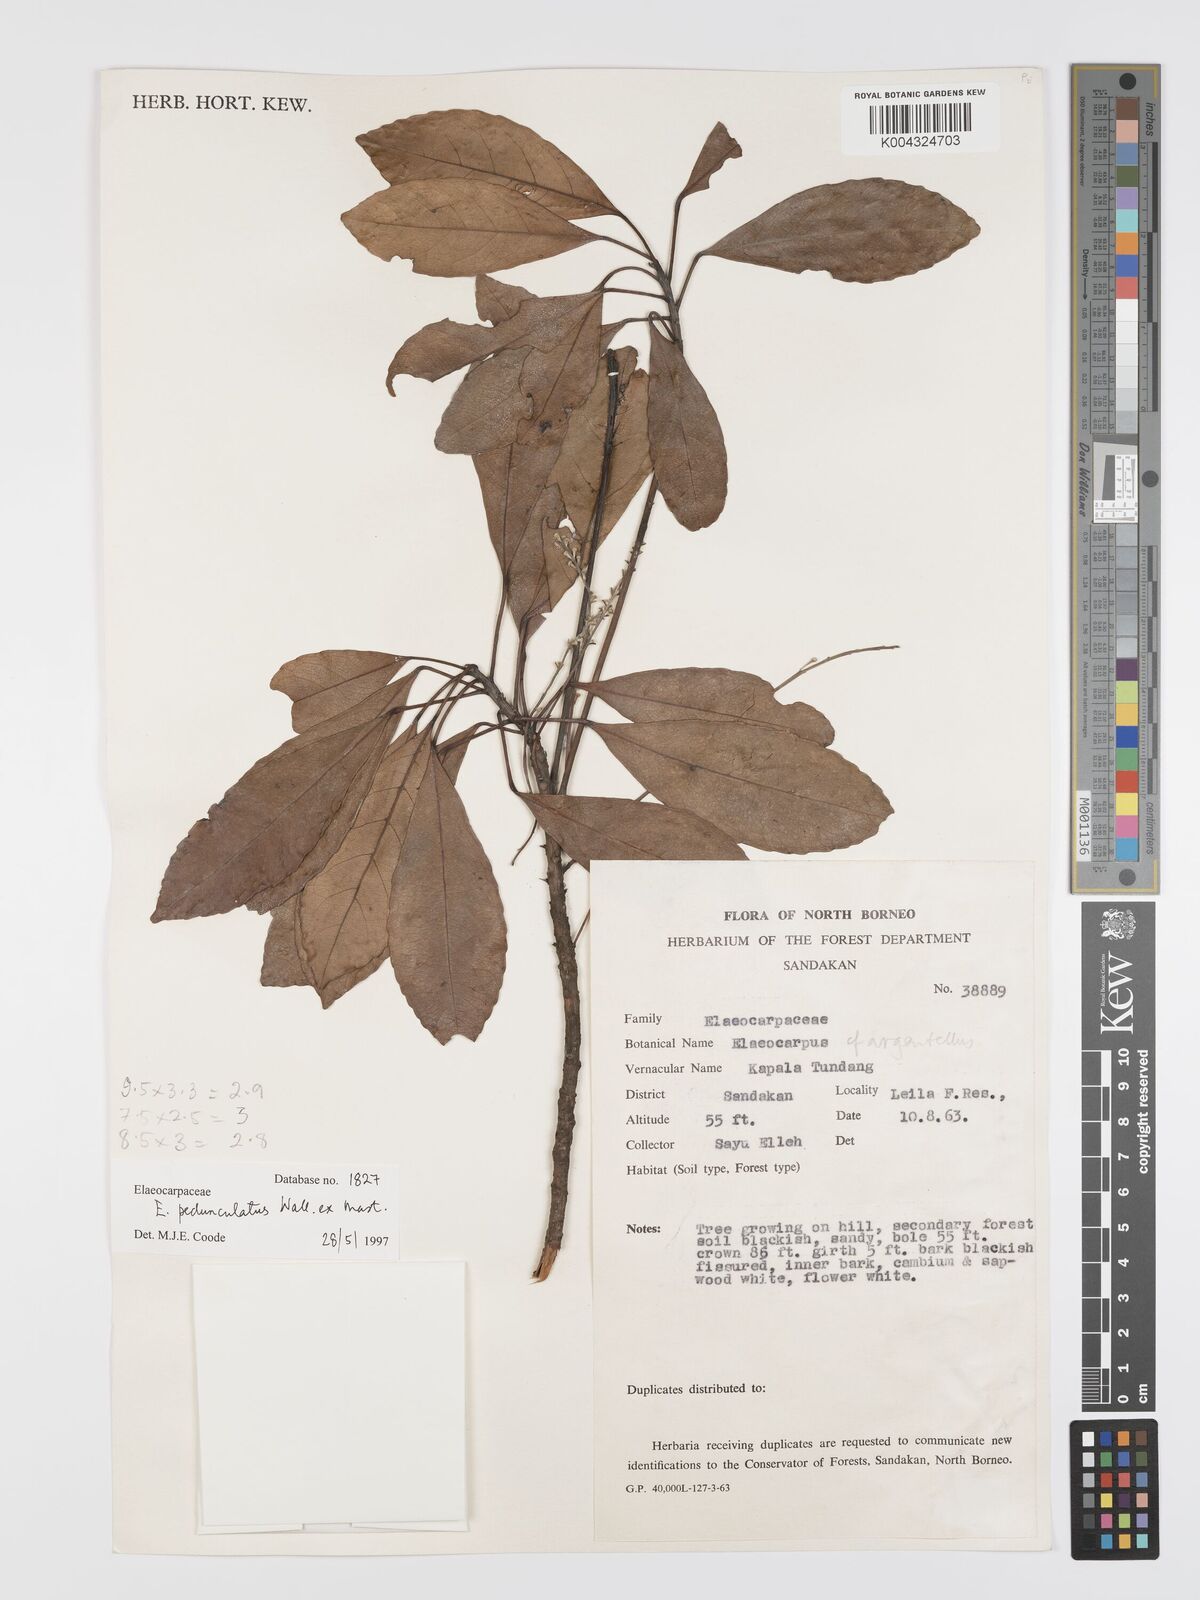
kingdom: Plantae
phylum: Tracheophyta
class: Magnoliopsida
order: Oxalidales
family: Elaeocarpaceae
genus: Elaeocarpus
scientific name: Elaeocarpus pedunculatus
